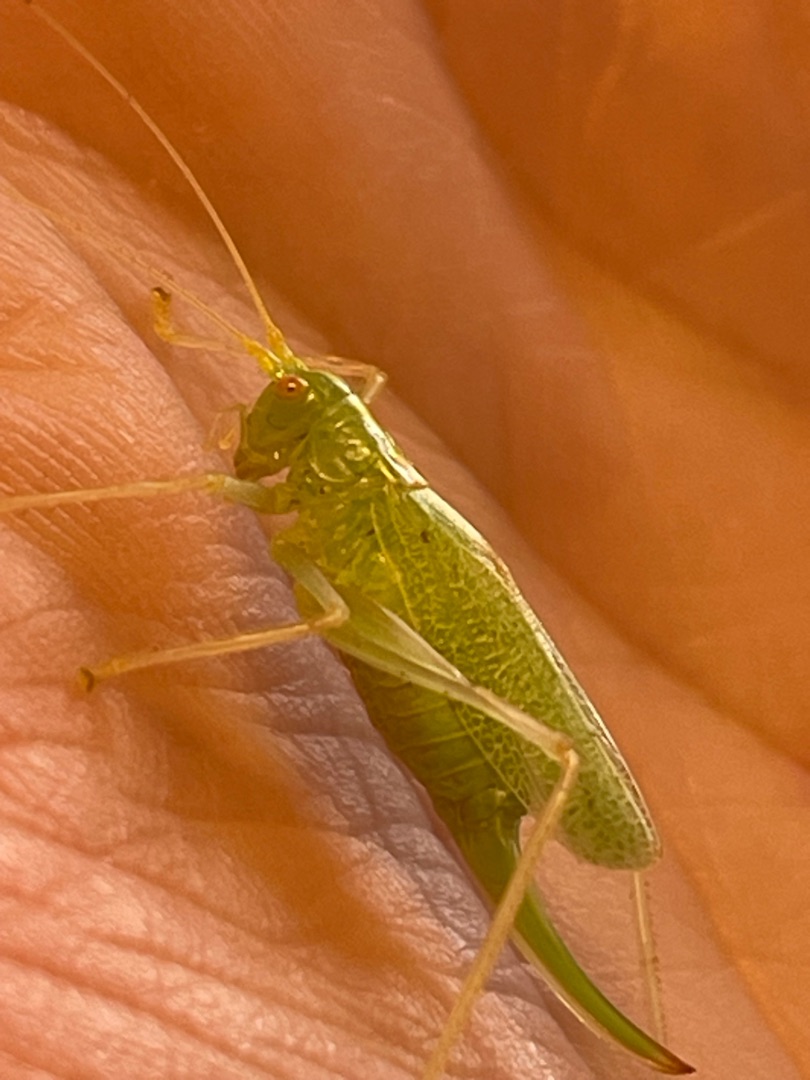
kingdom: Animalia
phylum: Arthropoda
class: Insecta
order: Orthoptera
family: Tettigoniidae
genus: Meconema
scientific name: Meconema thalassinum
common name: Egegræshoppe
